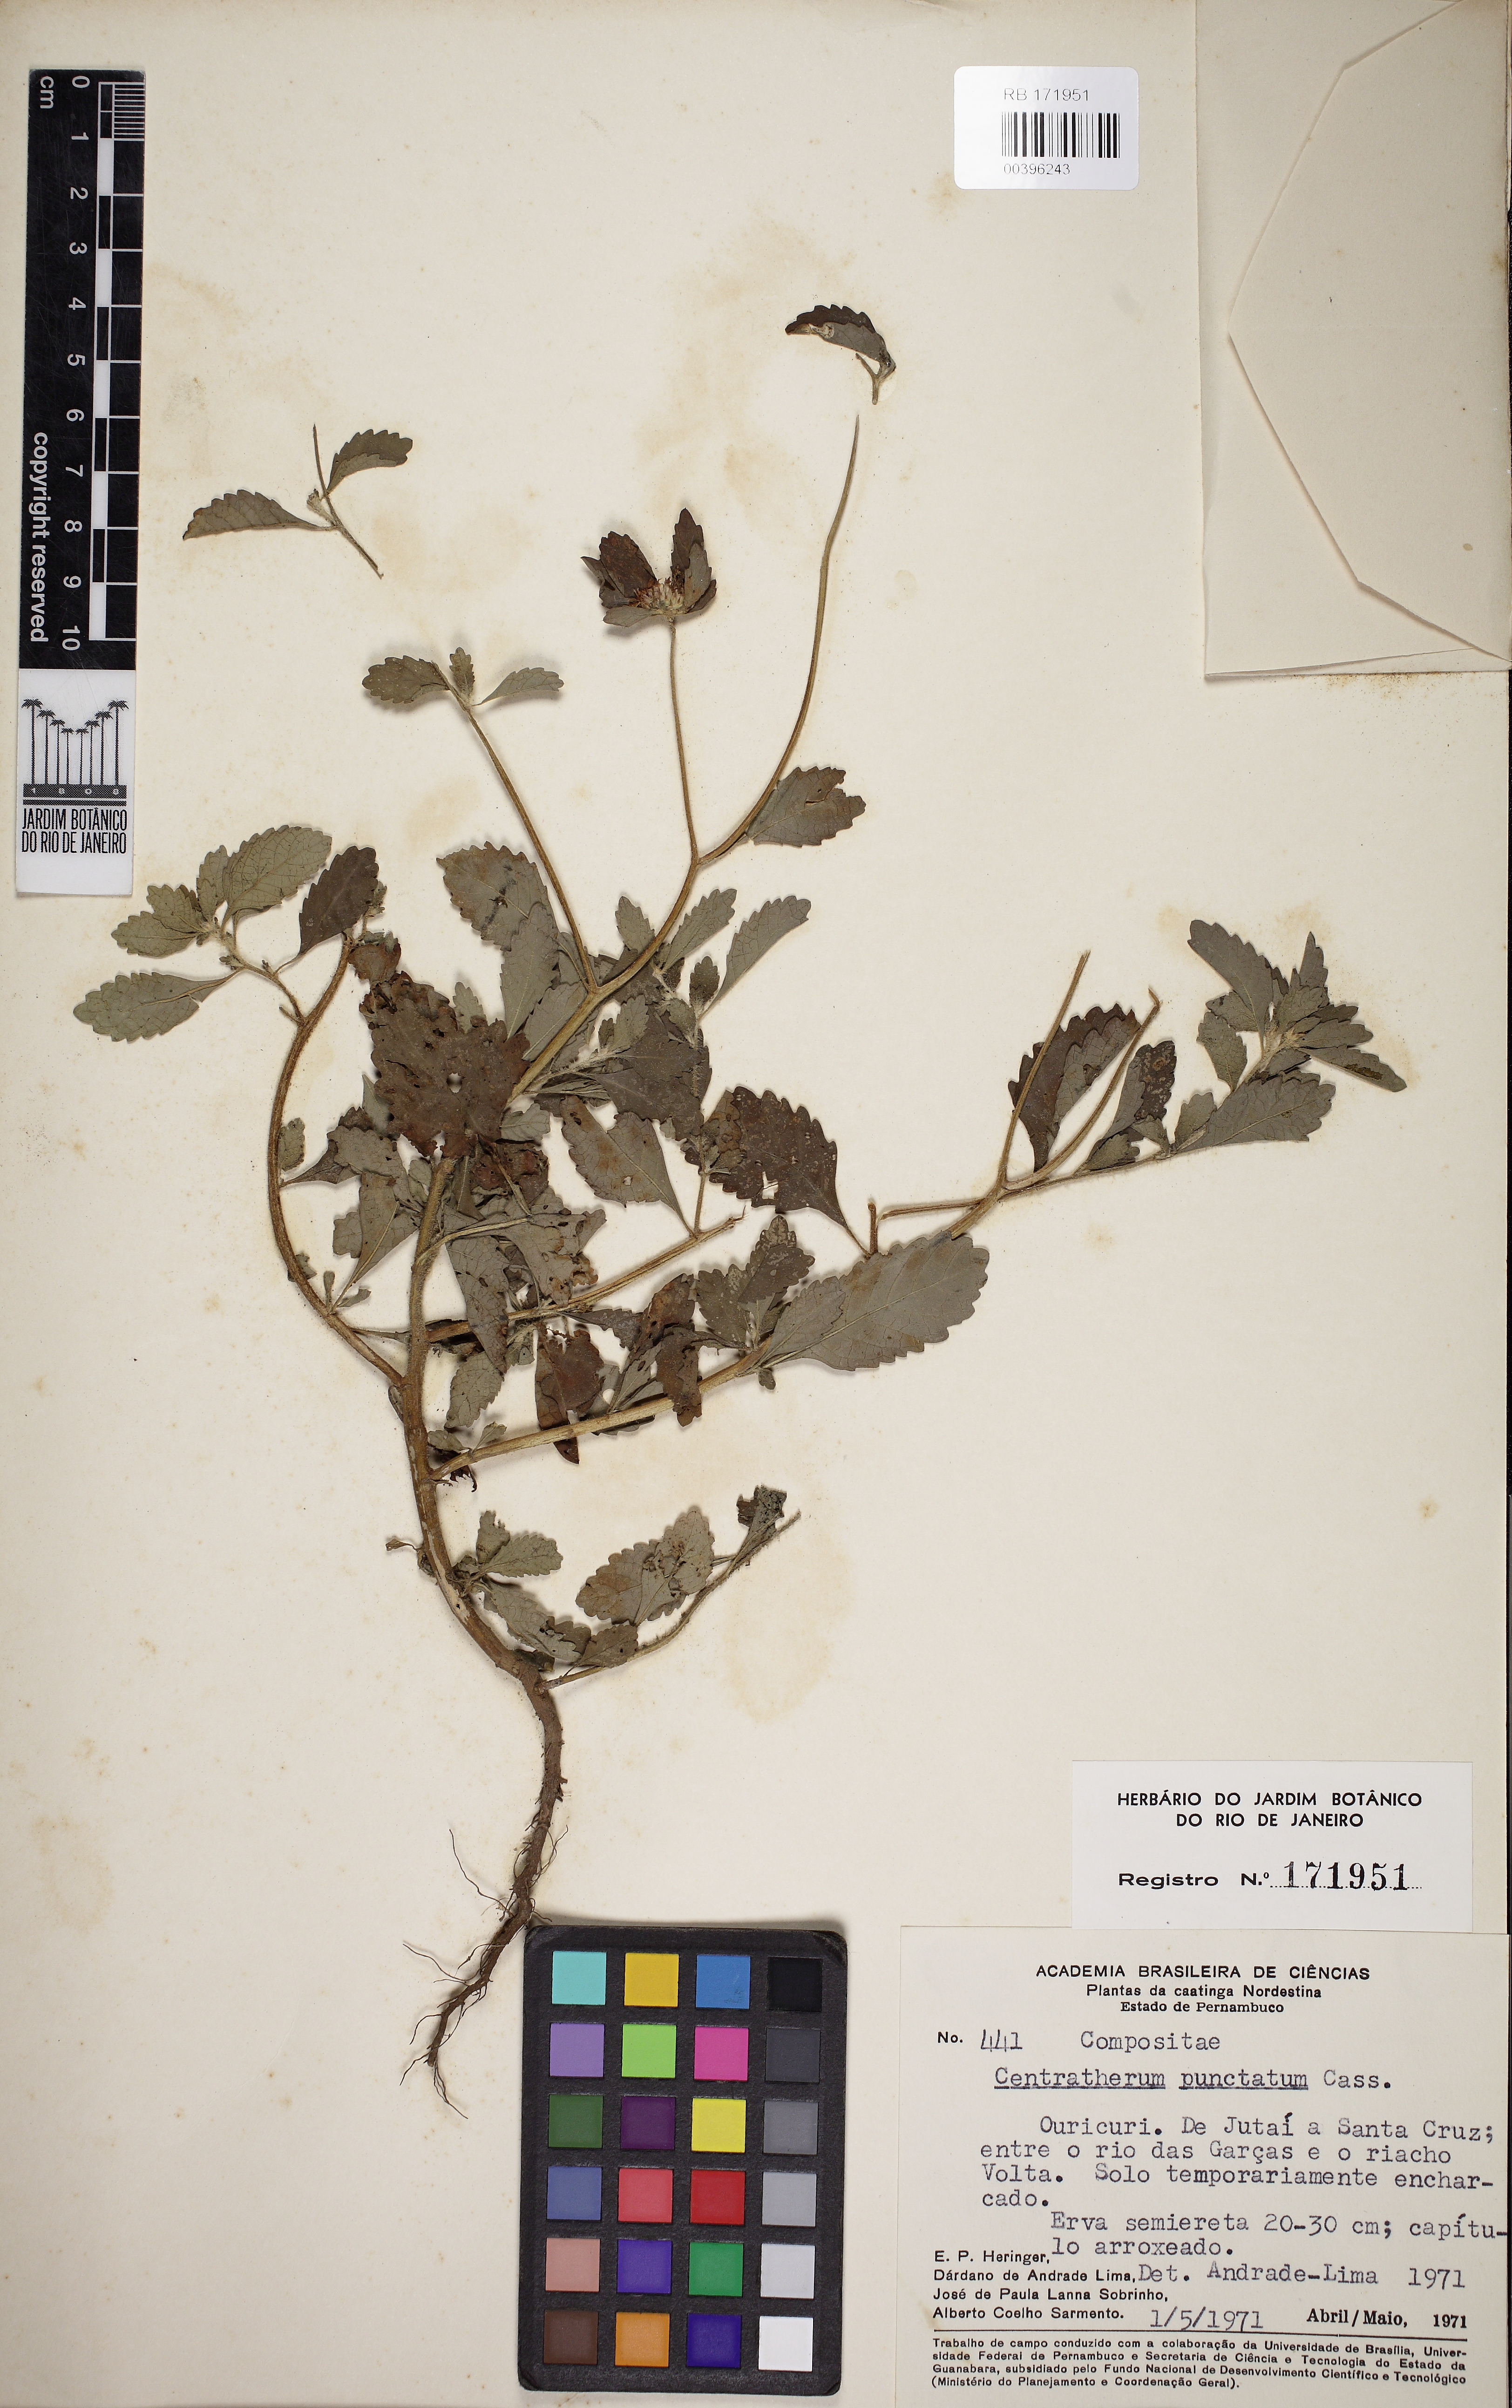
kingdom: Plantae
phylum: Tracheophyta
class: Magnoliopsida
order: Asterales
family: Asteraceae
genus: Centratherum
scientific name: Centratherum punctatum
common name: Larkdaisy
